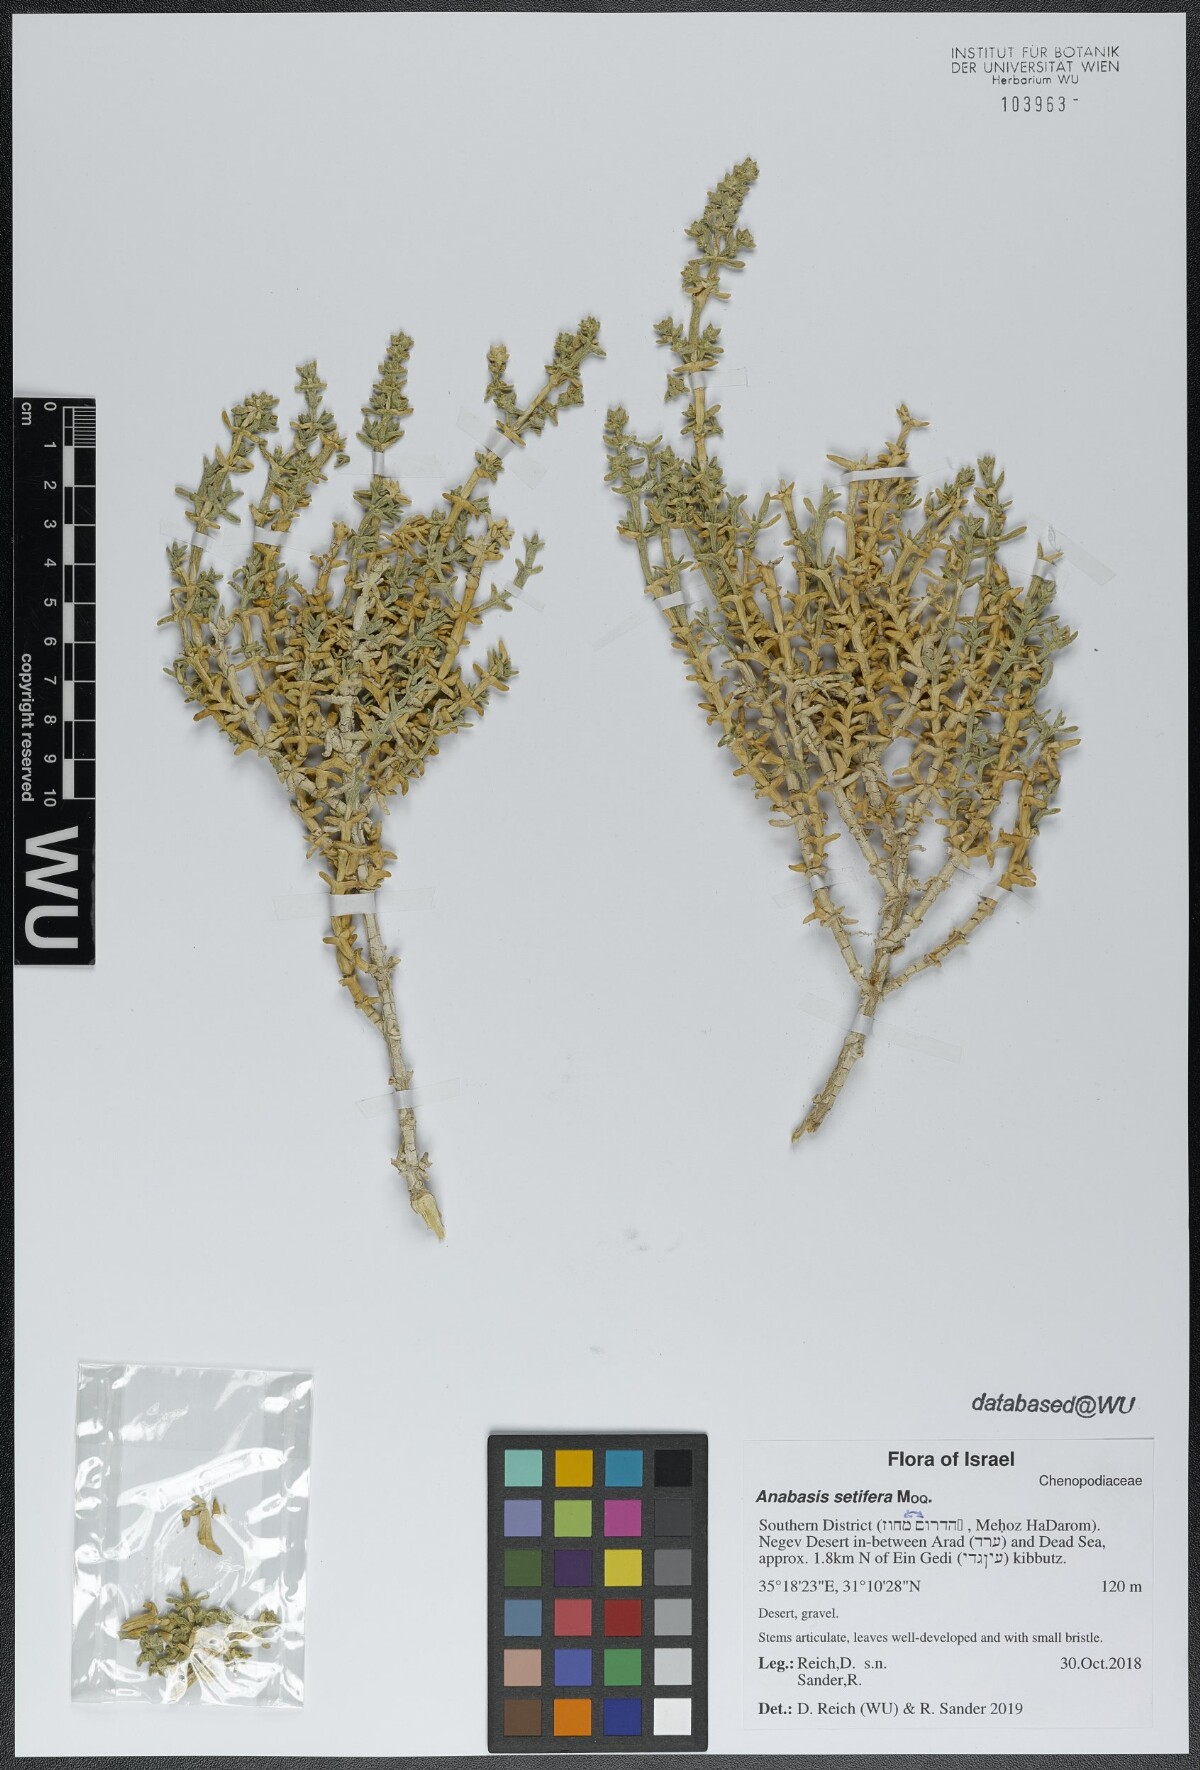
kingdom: Plantae
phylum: Tracheophyta
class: Magnoliopsida
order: Caryophyllales
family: Amaranthaceae
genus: Anabasis
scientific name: Anabasis setifera
